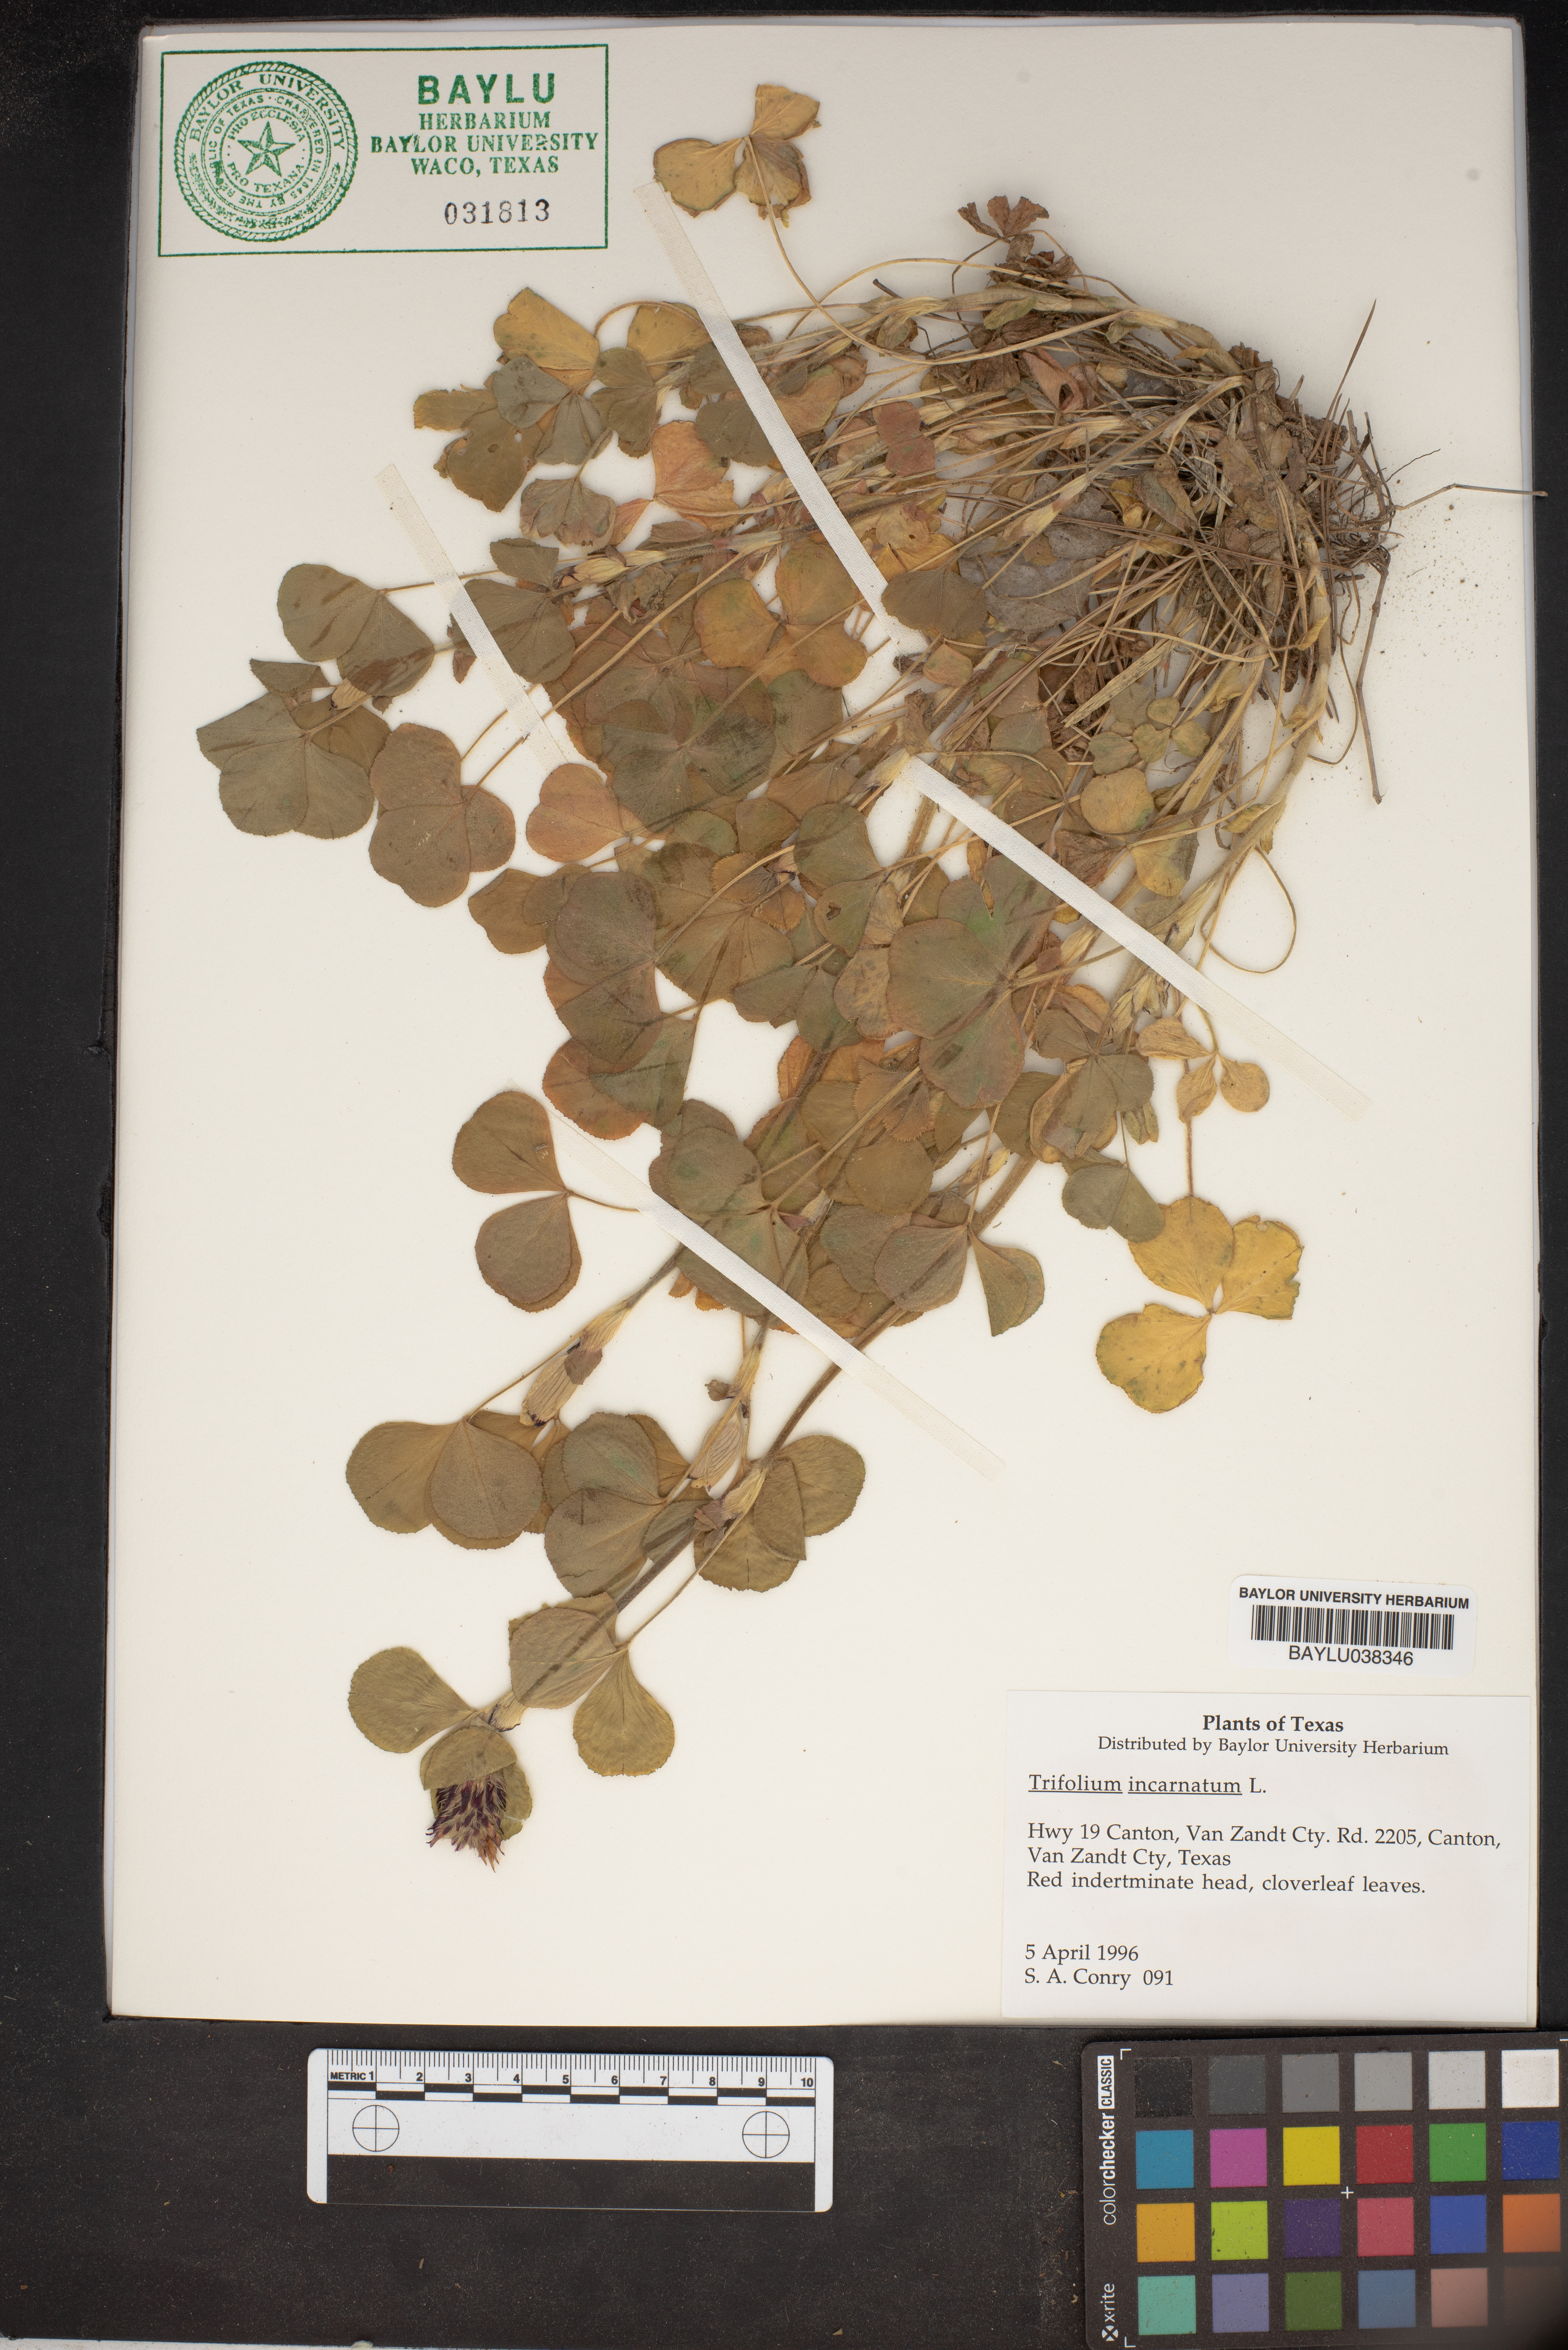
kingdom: Plantae
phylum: Tracheophyta
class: Magnoliopsida
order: Fabales
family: Fabaceae
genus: Trifolium
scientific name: Trifolium incarnatum
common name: Crimson clover
